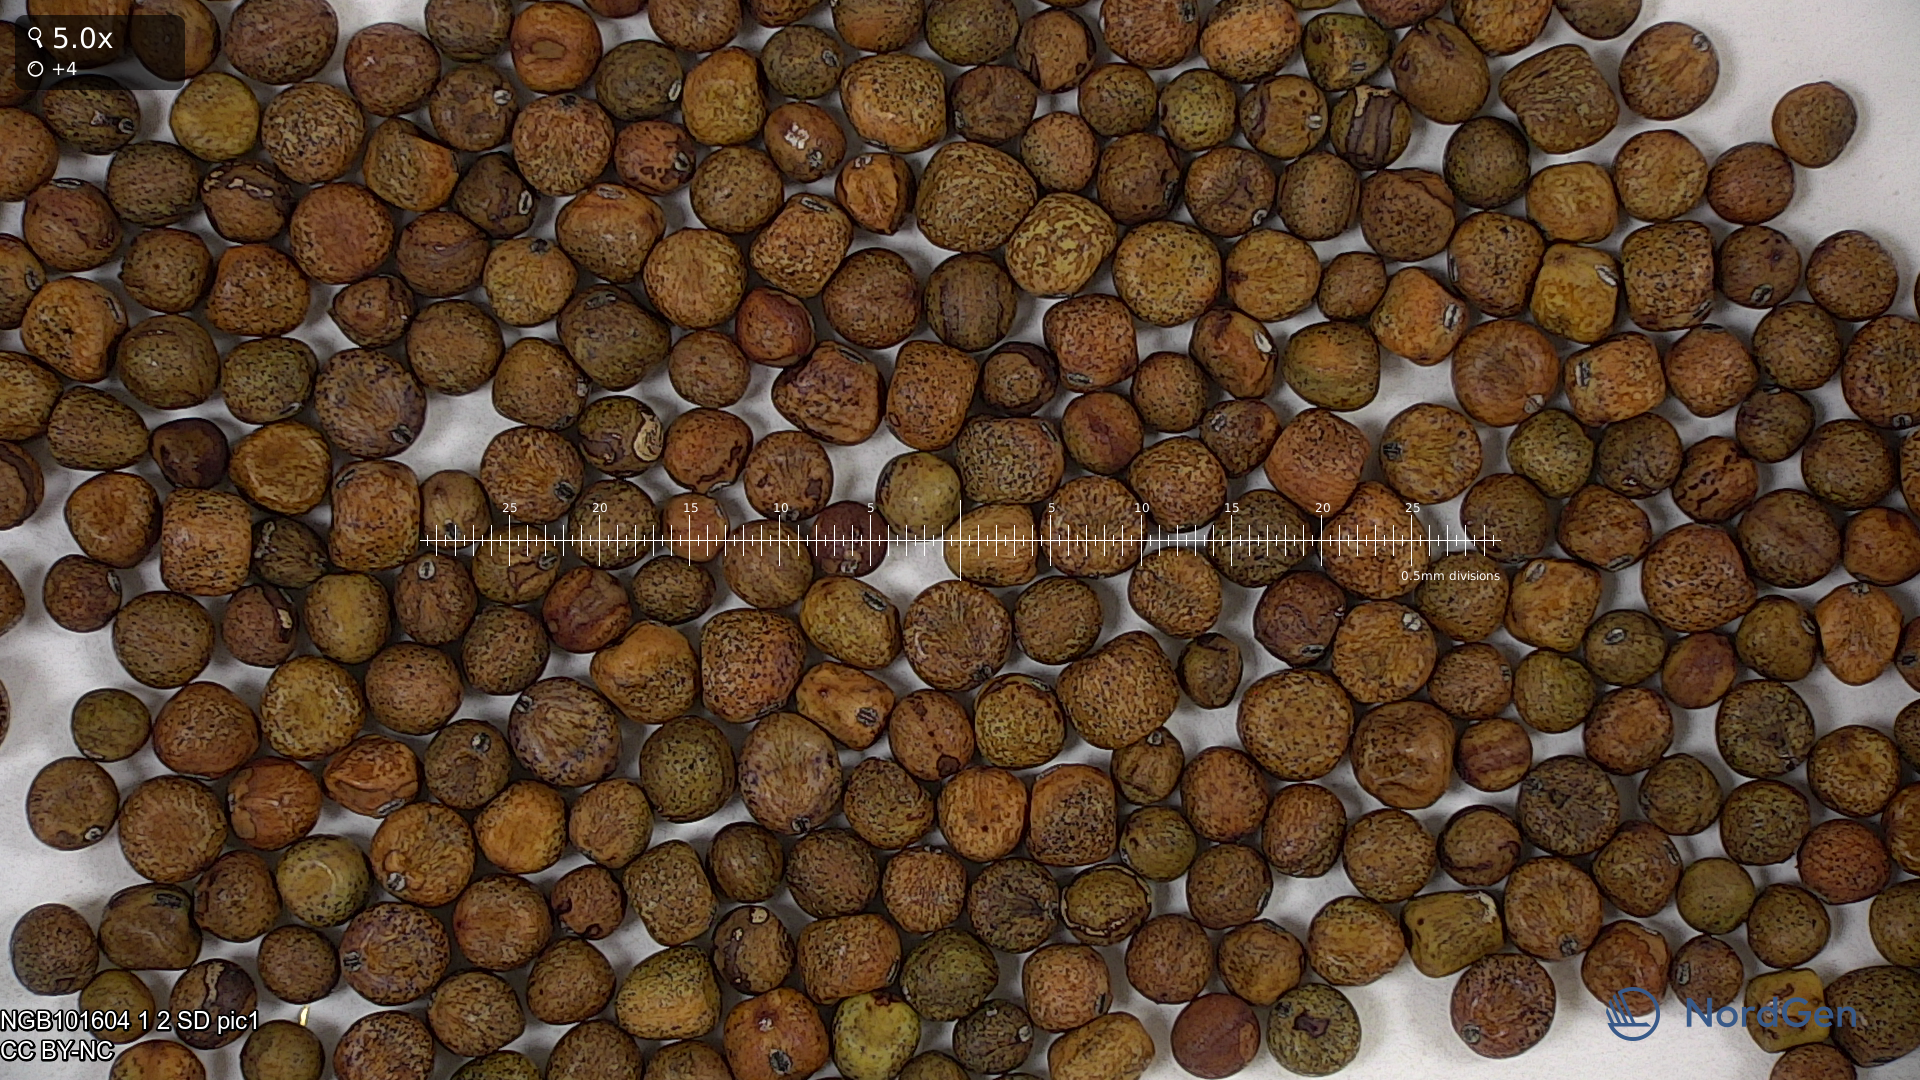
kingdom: Plantae
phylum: Tracheophyta
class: Magnoliopsida
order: Fabales
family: Fabaceae
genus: Lathyrus
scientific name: Lathyrus oleraceus
